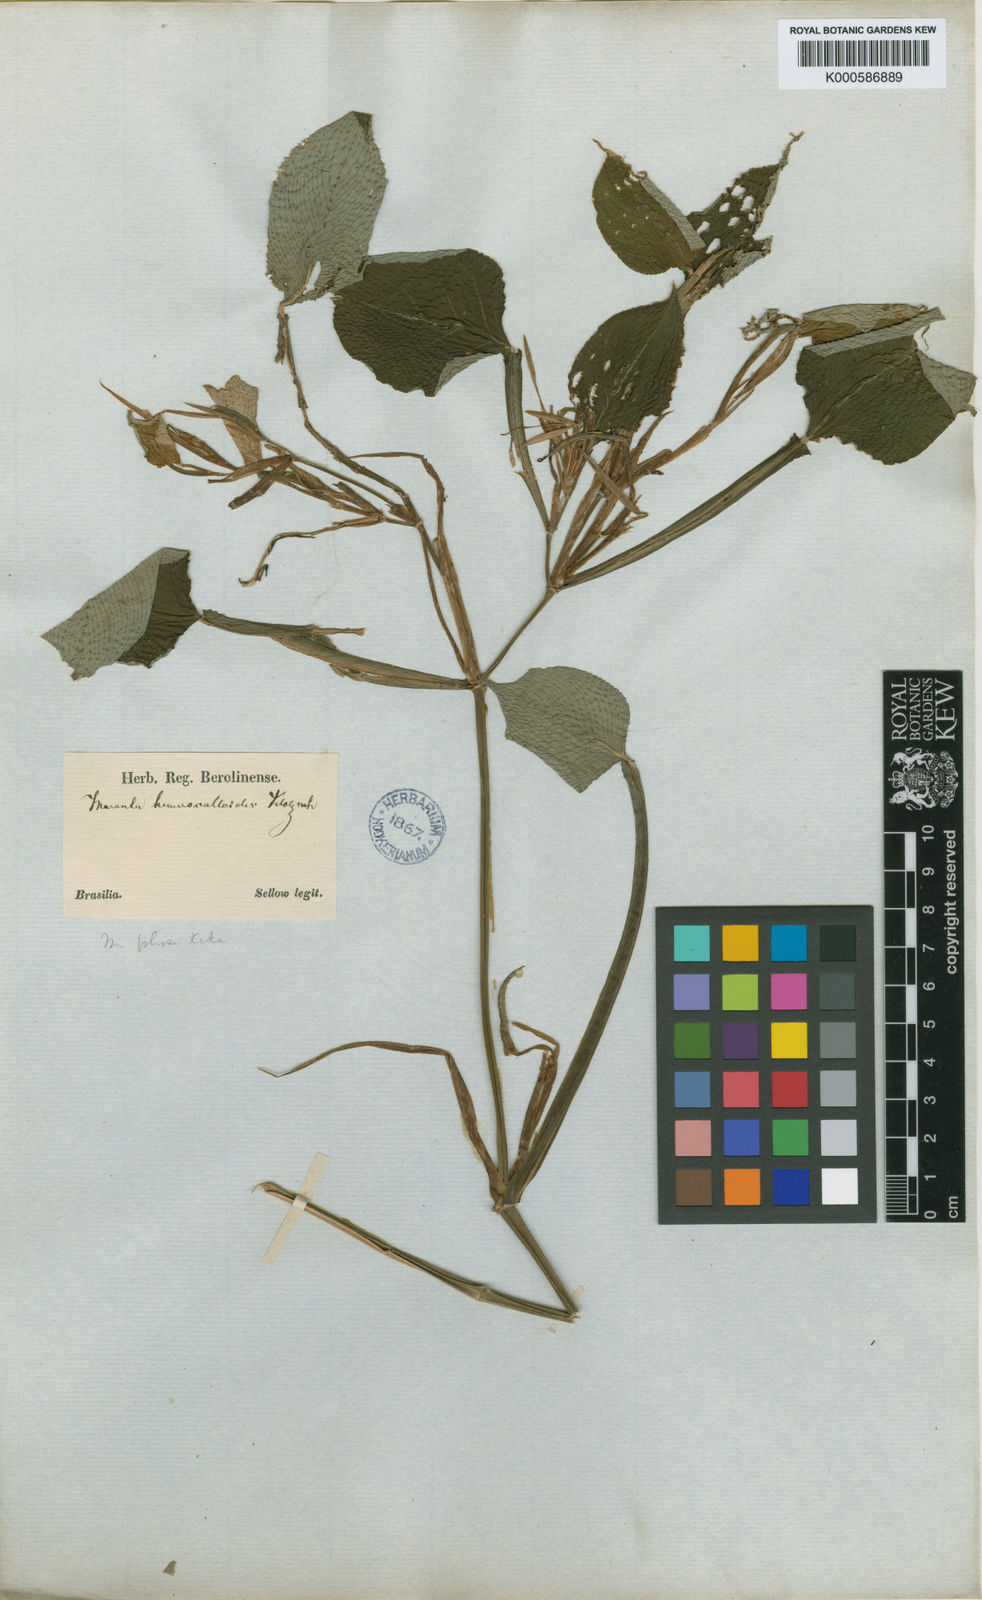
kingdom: Plantae
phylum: Tracheophyta
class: Liliopsida
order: Zingiberales
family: Marantaceae
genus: Maranta
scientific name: Maranta
